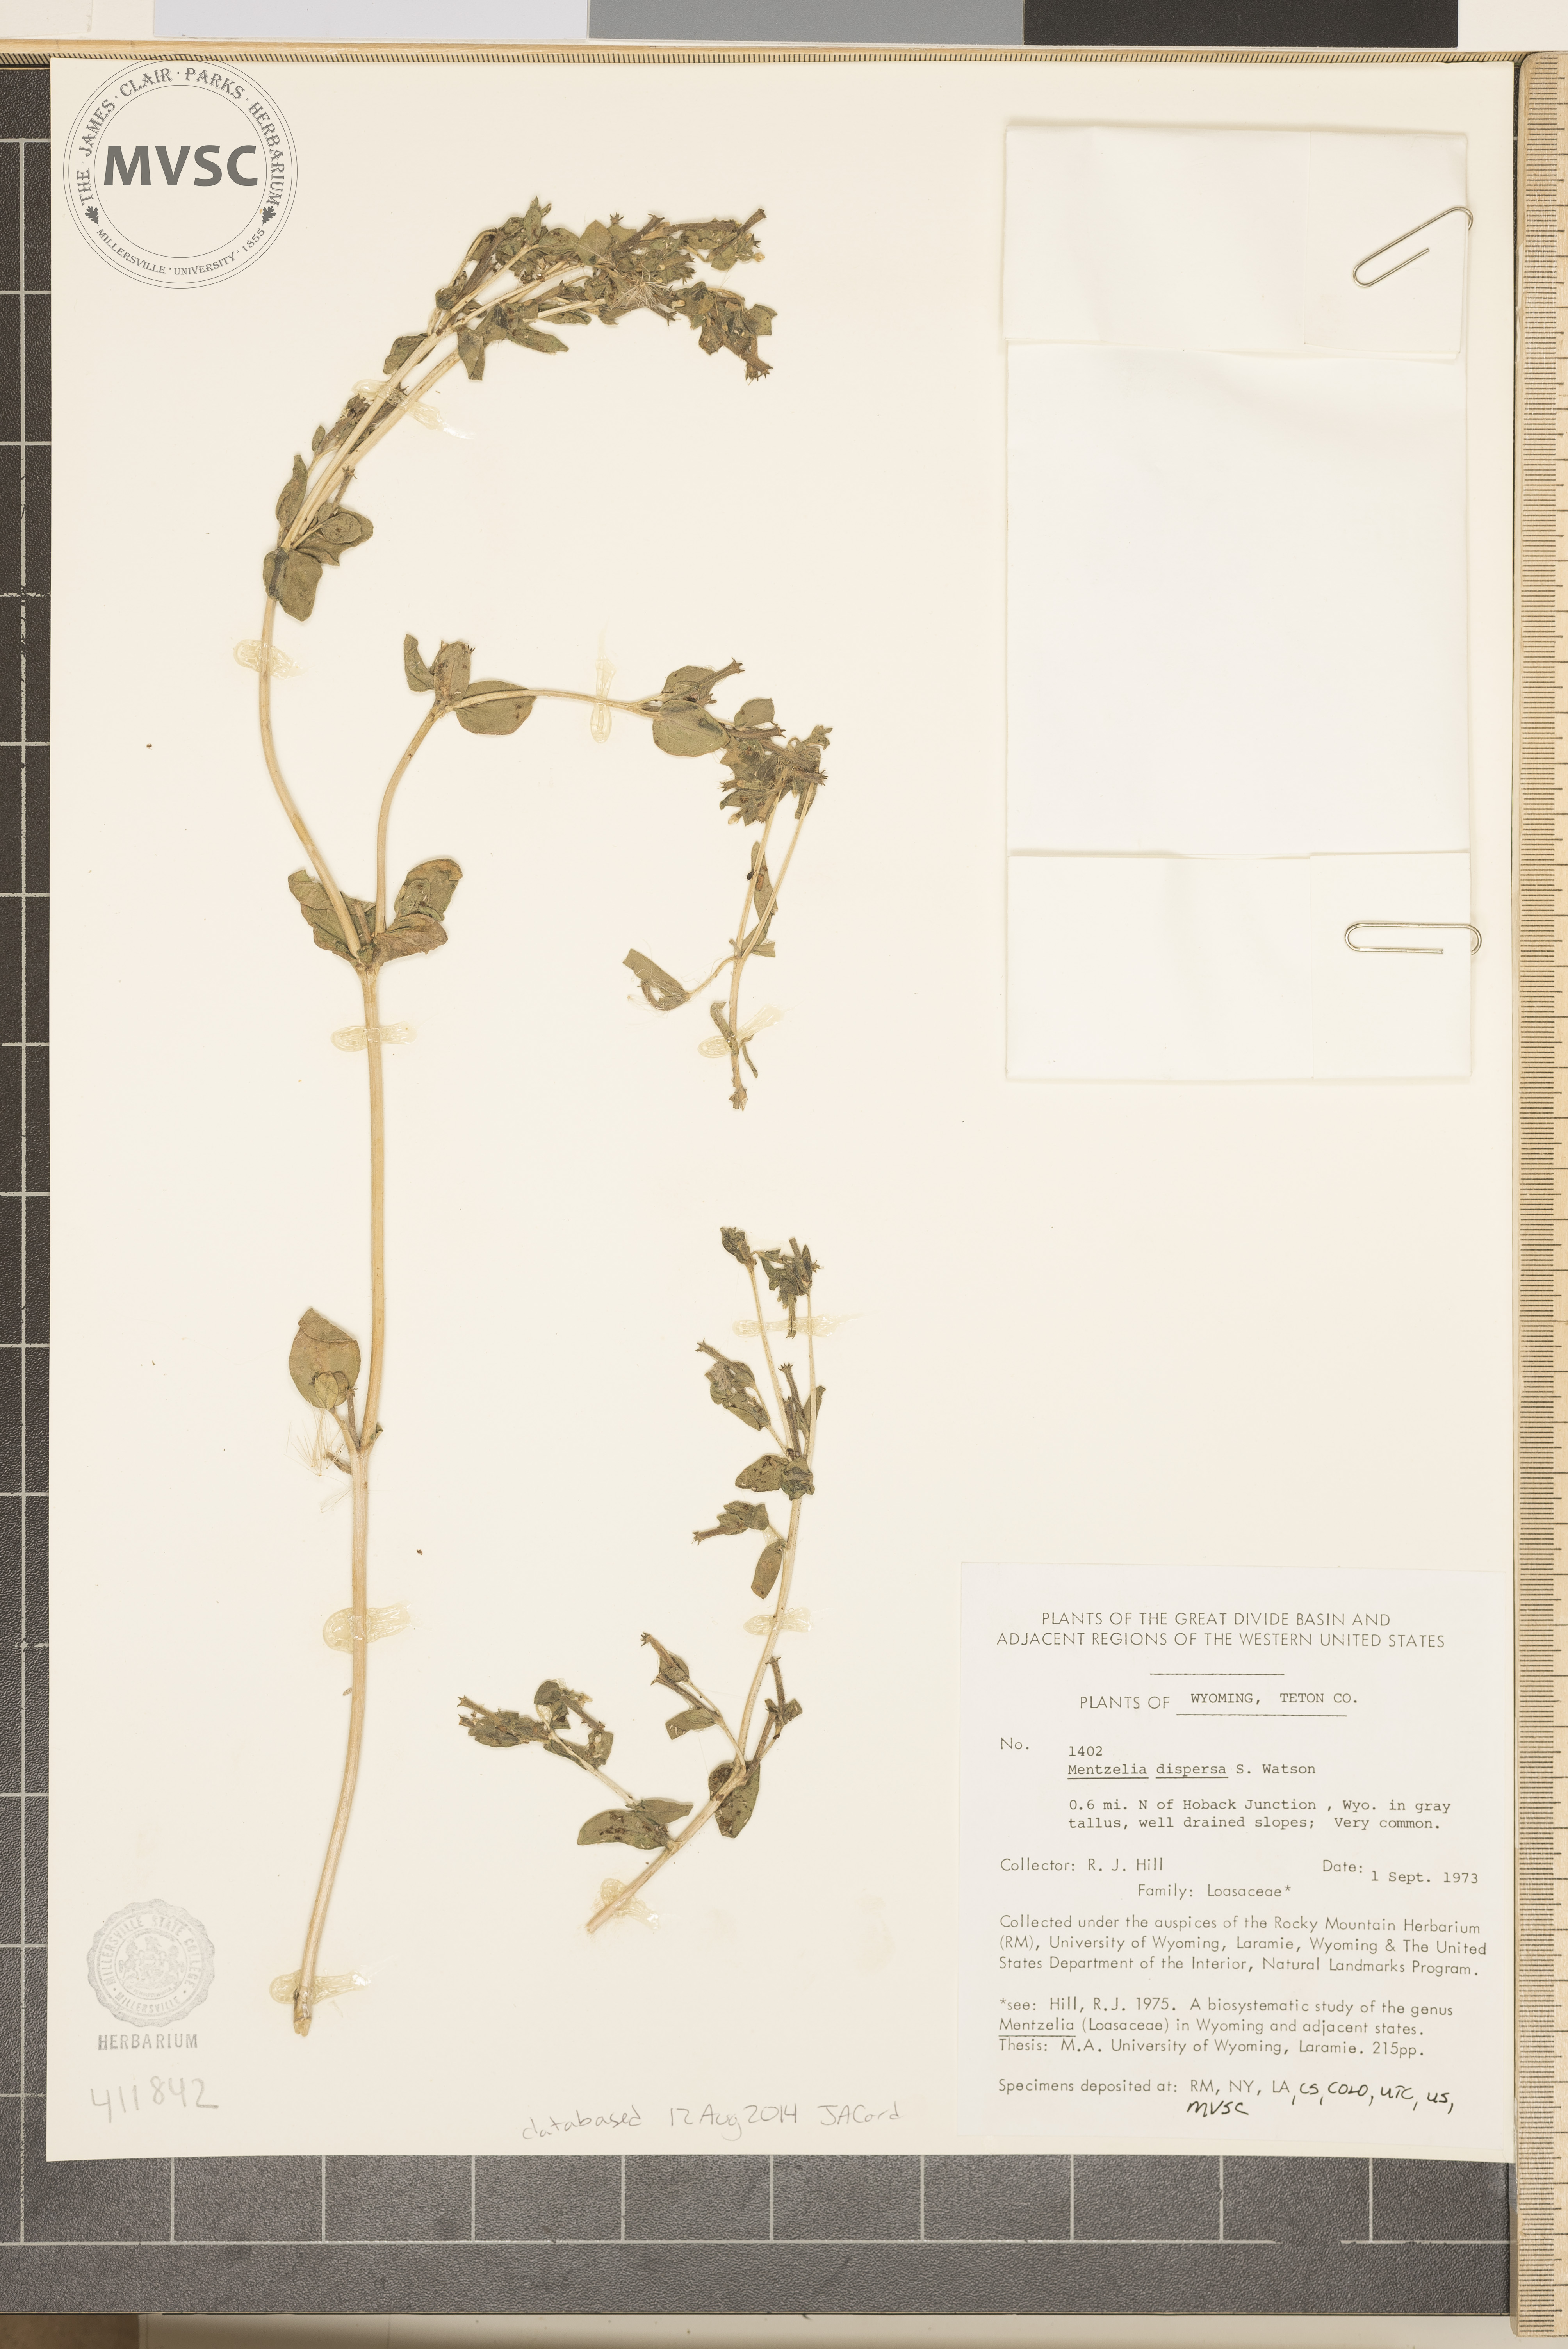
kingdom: Plantae
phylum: Tracheophyta
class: Magnoliopsida
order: Cornales
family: Loasaceae
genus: Mentzelia
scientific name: Mentzelia dispersa
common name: Nada stickleaf
